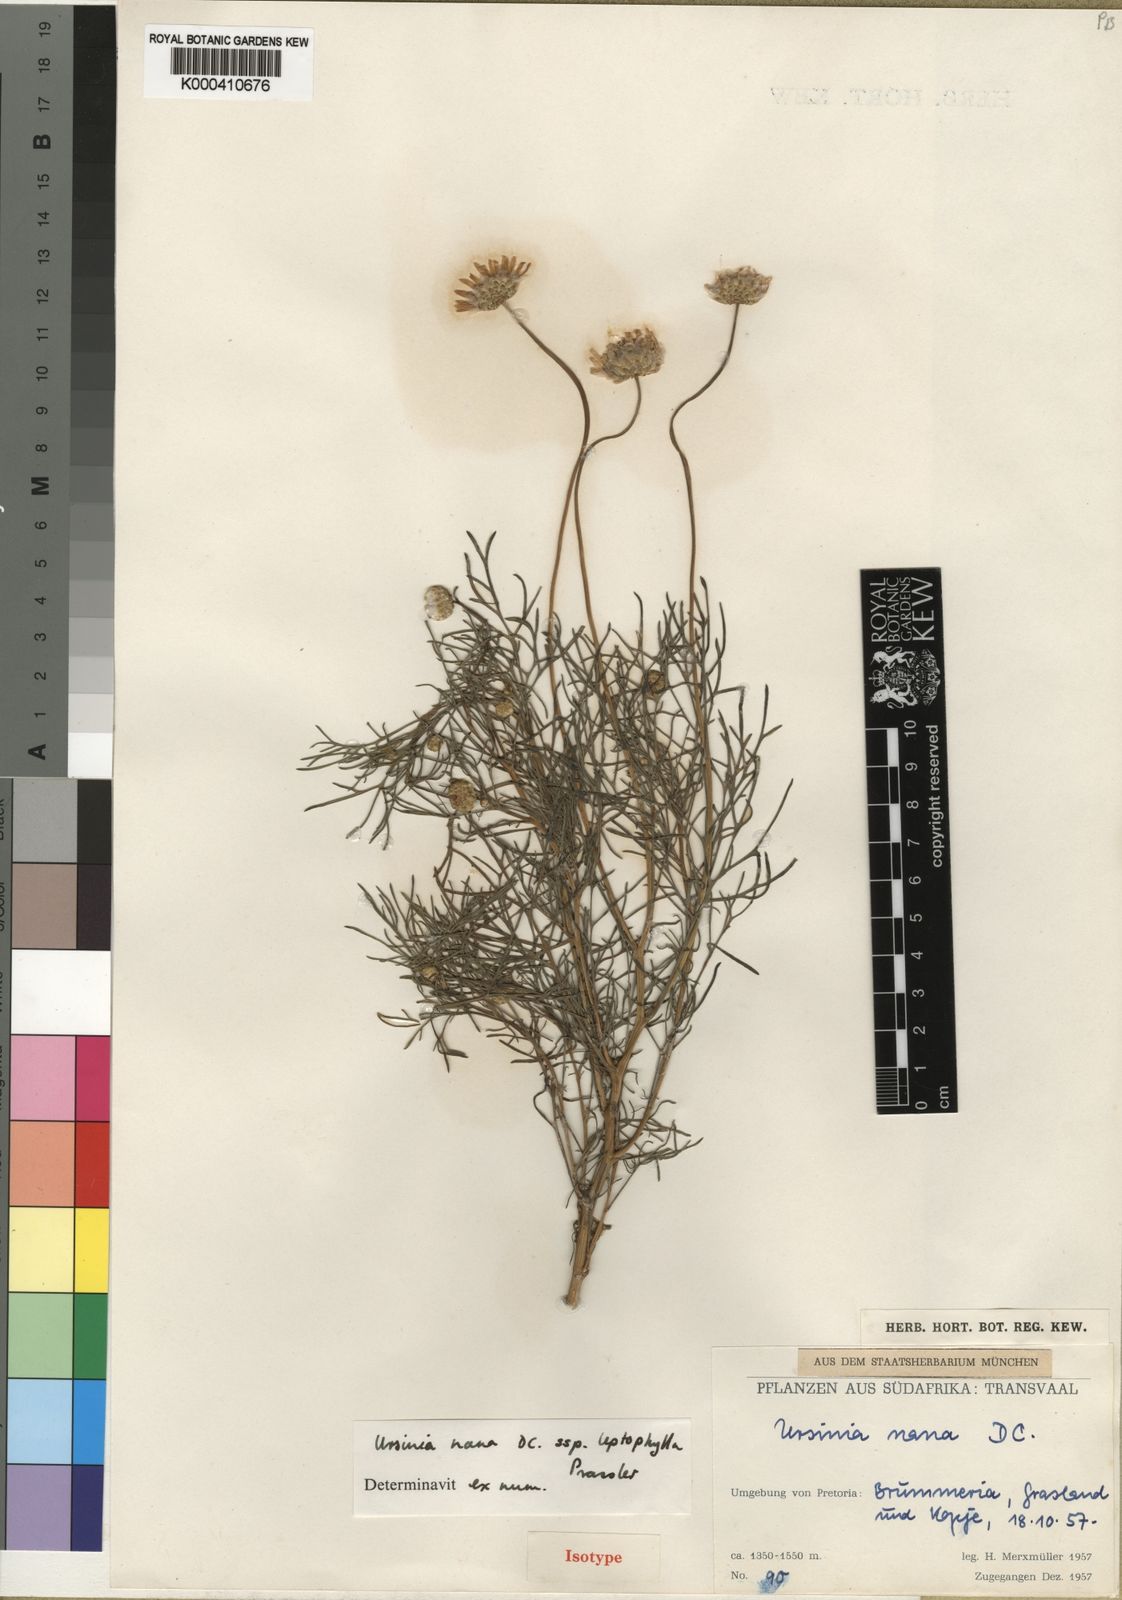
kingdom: Plantae
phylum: Tracheophyta
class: Magnoliopsida
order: Asterales
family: Asteraceae
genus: Ursinia
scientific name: Ursinia nana
